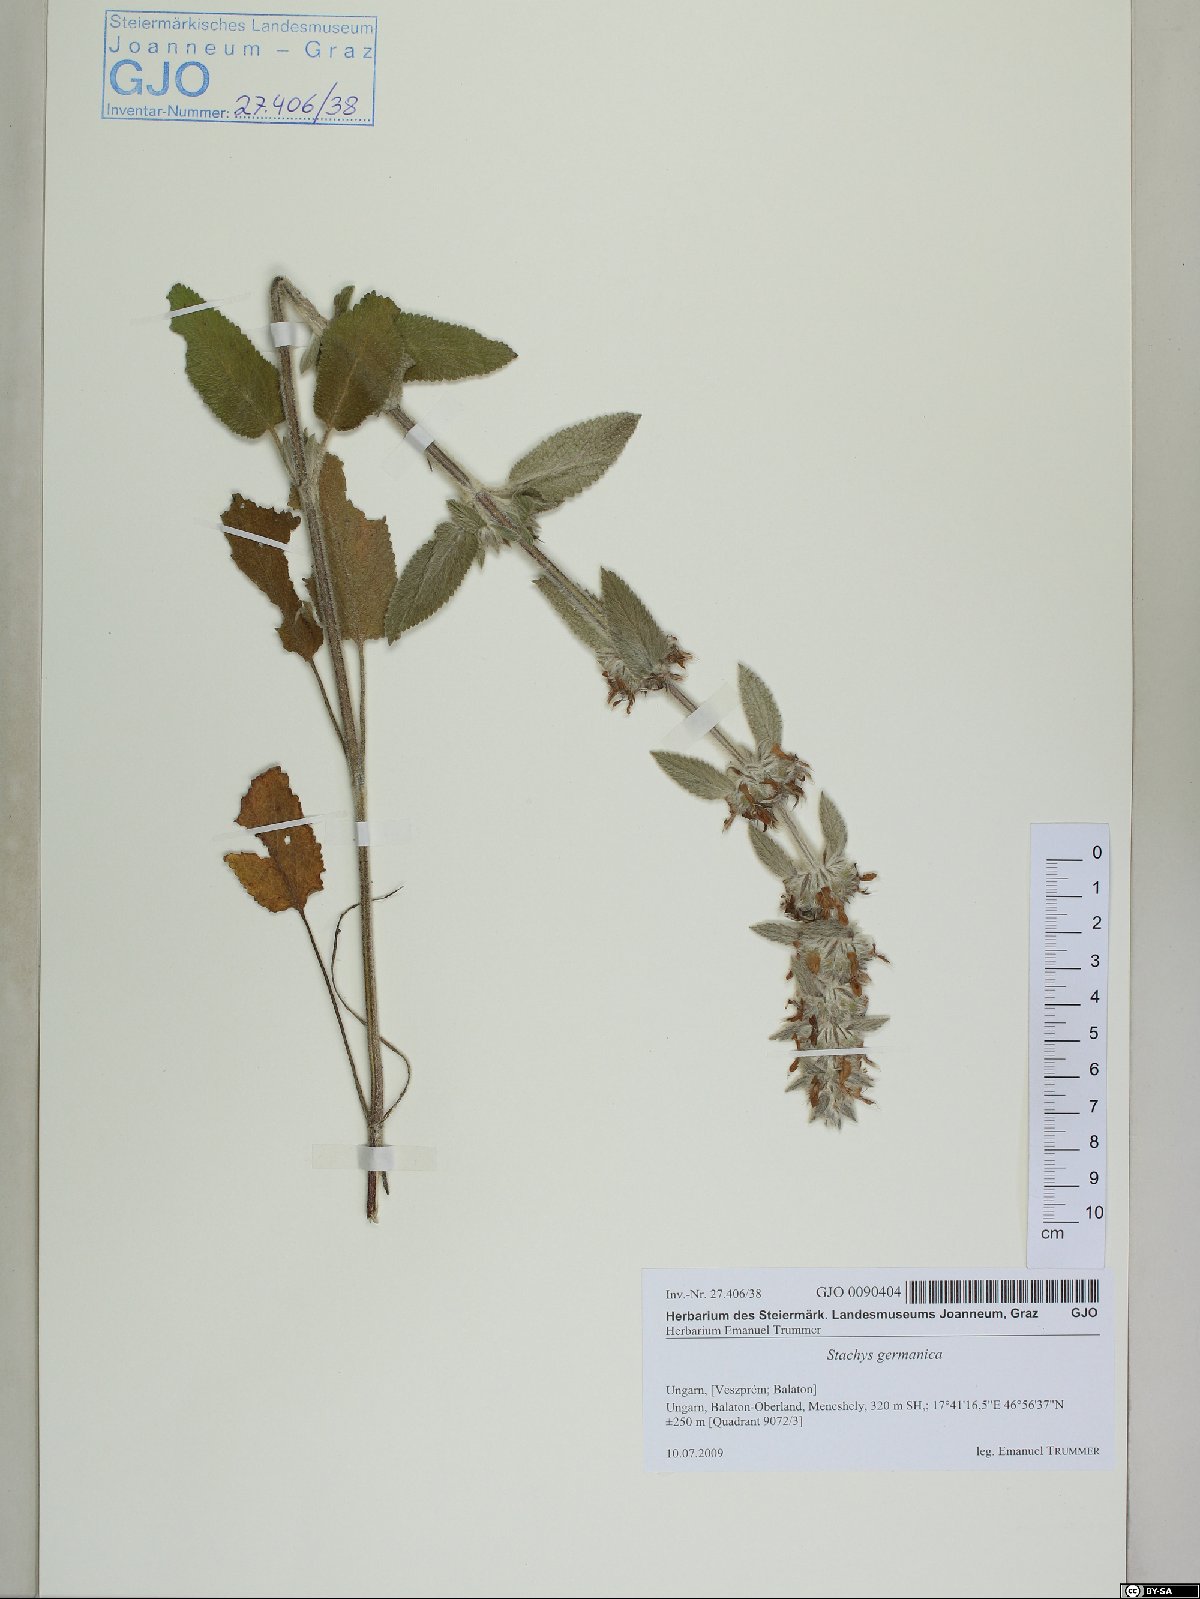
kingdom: Plantae
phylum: Tracheophyta
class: Magnoliopsida
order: Lamiales
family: Lamiaceae
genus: Stachys
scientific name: Stachys germanica
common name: Downy woundwort
